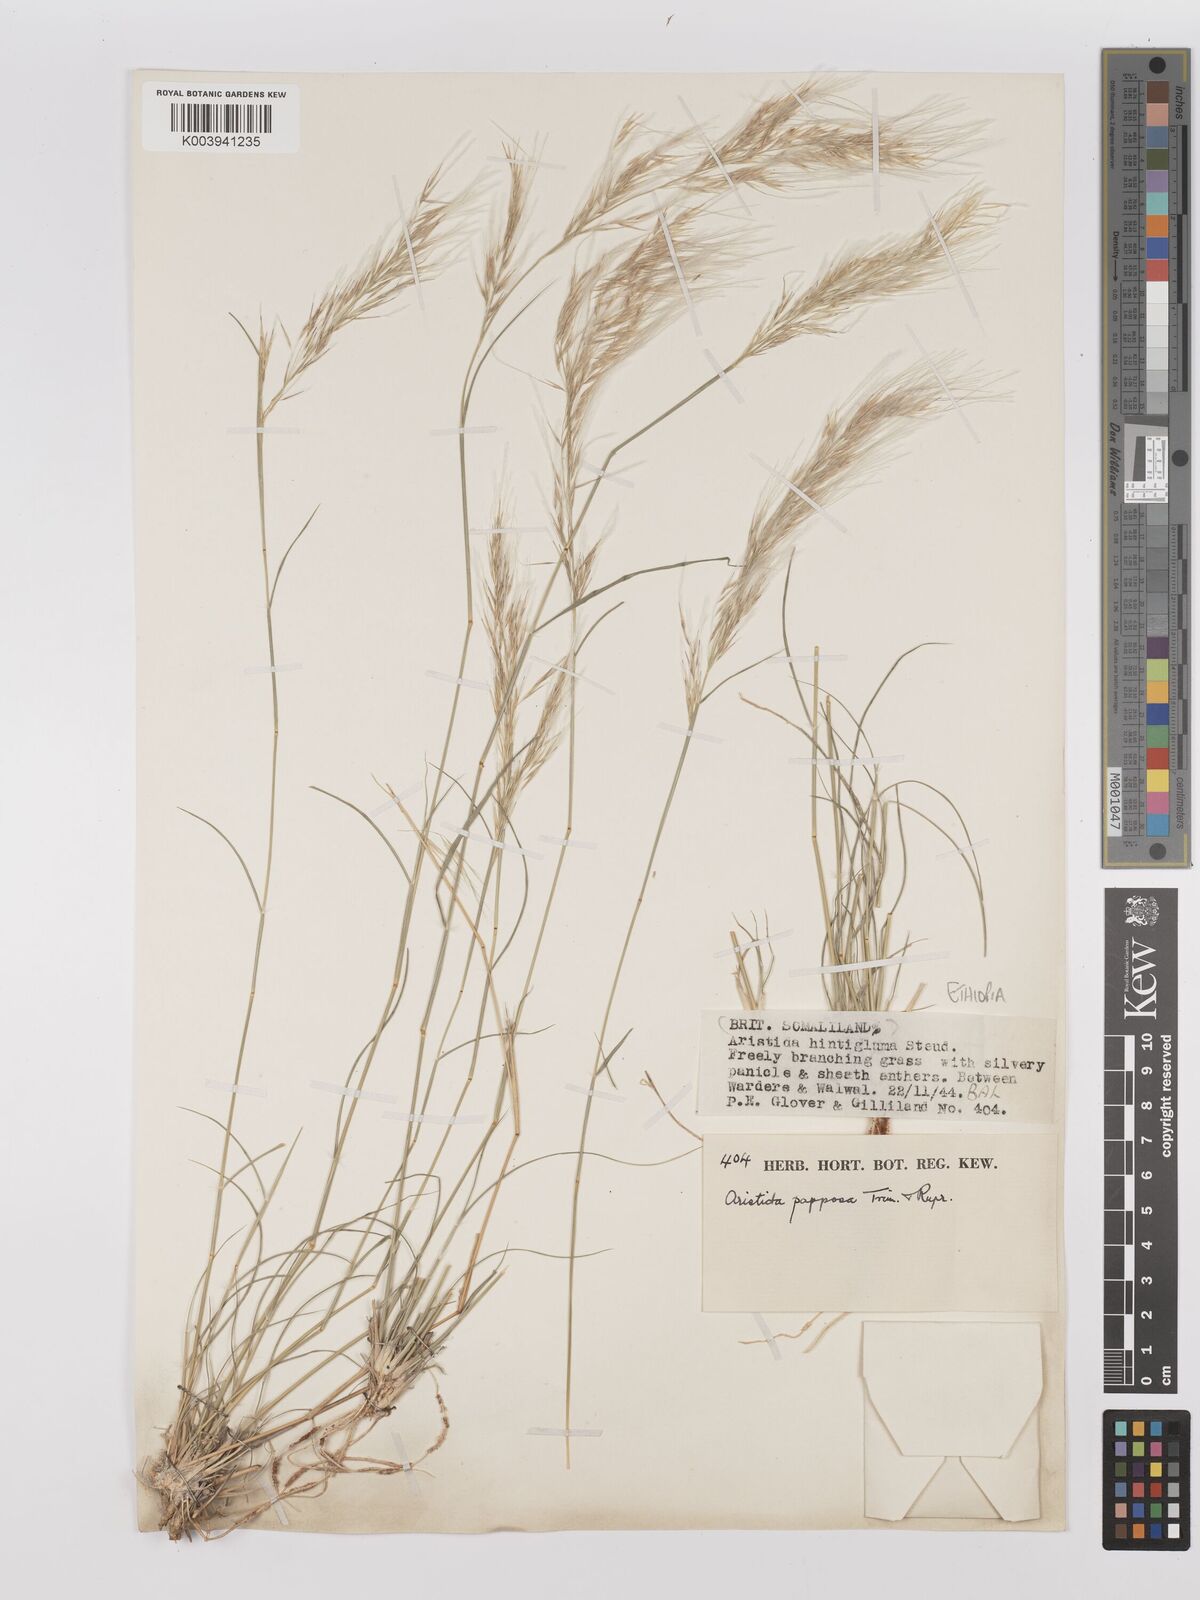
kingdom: Plantae
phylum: Tracheophyta
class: Liliopsida
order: Poales
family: Poaceae
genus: Stipagrostis
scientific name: Stipagrostis uniplumis
